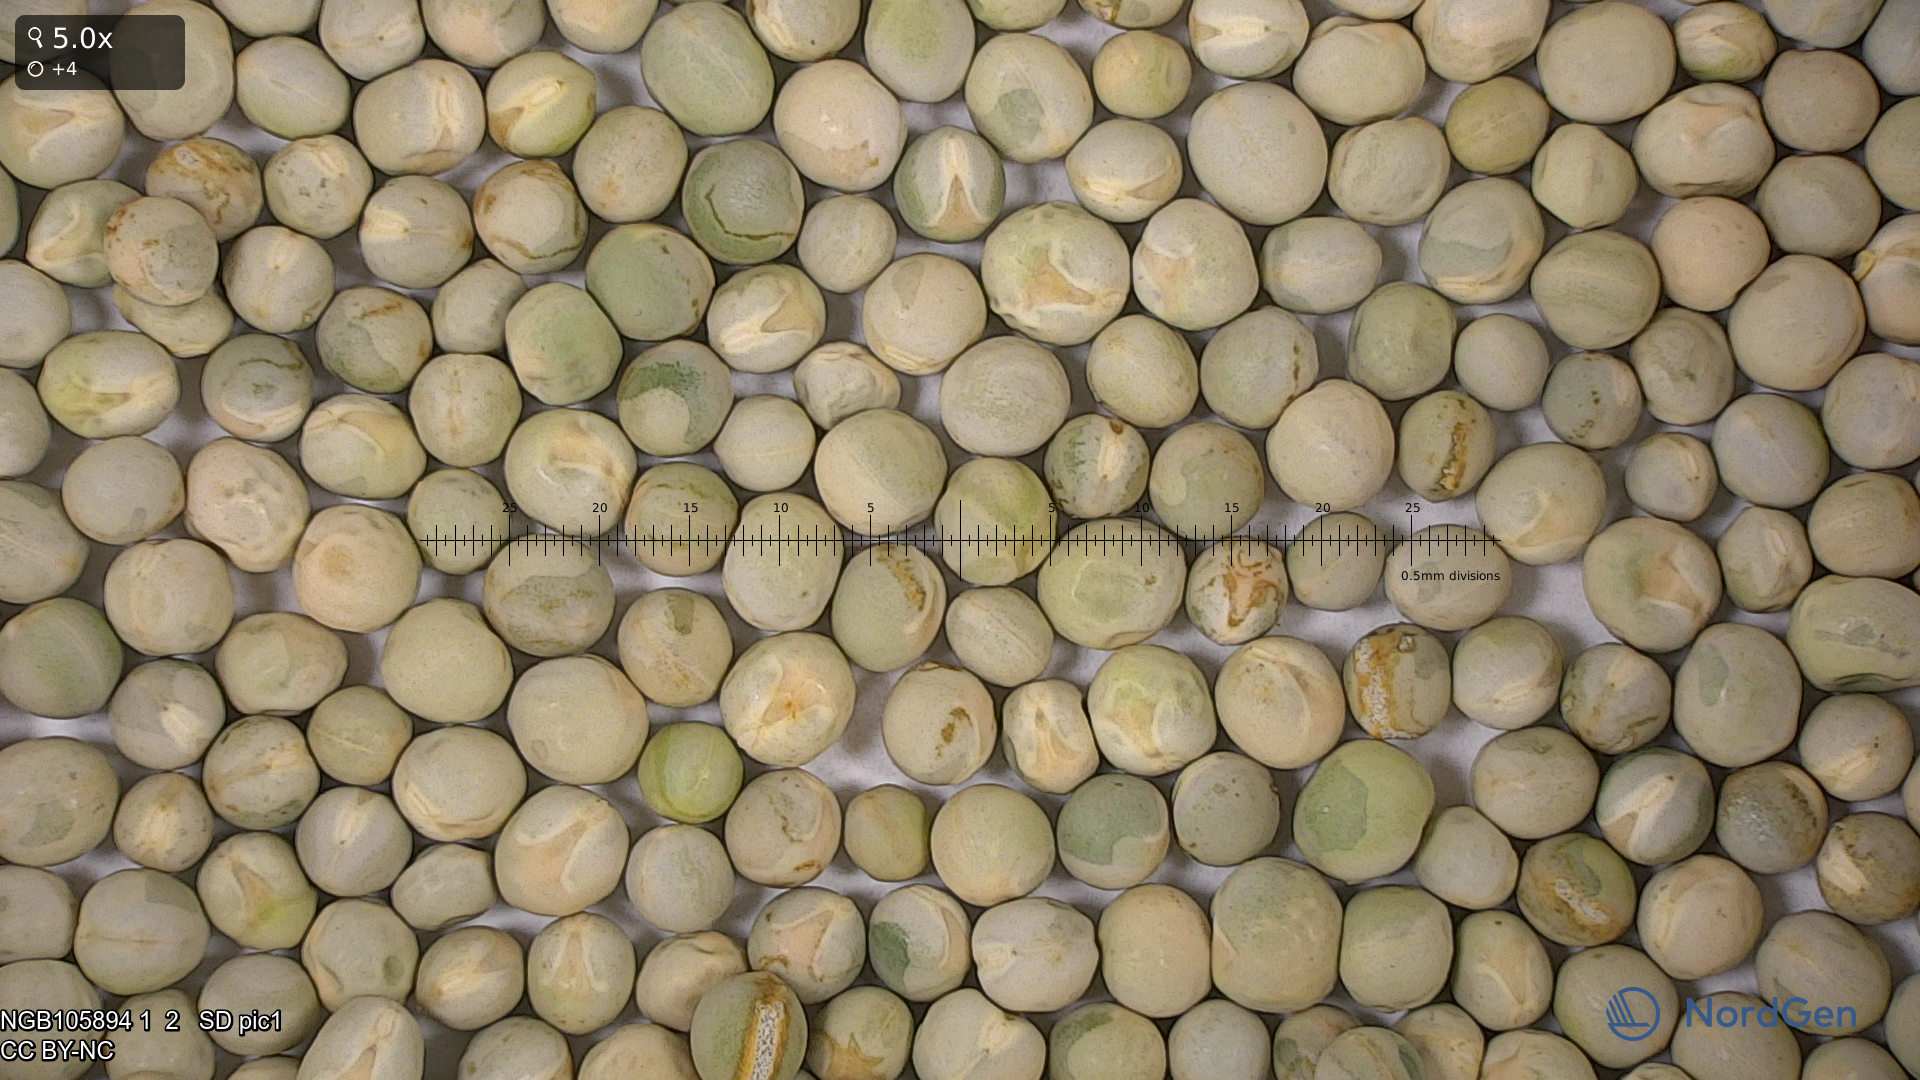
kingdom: Plantae
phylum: Tracheophyta
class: Magnoliopsida
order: Fabales
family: Fabaceae
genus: Lathyrus
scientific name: Lathyrus oleraceus
